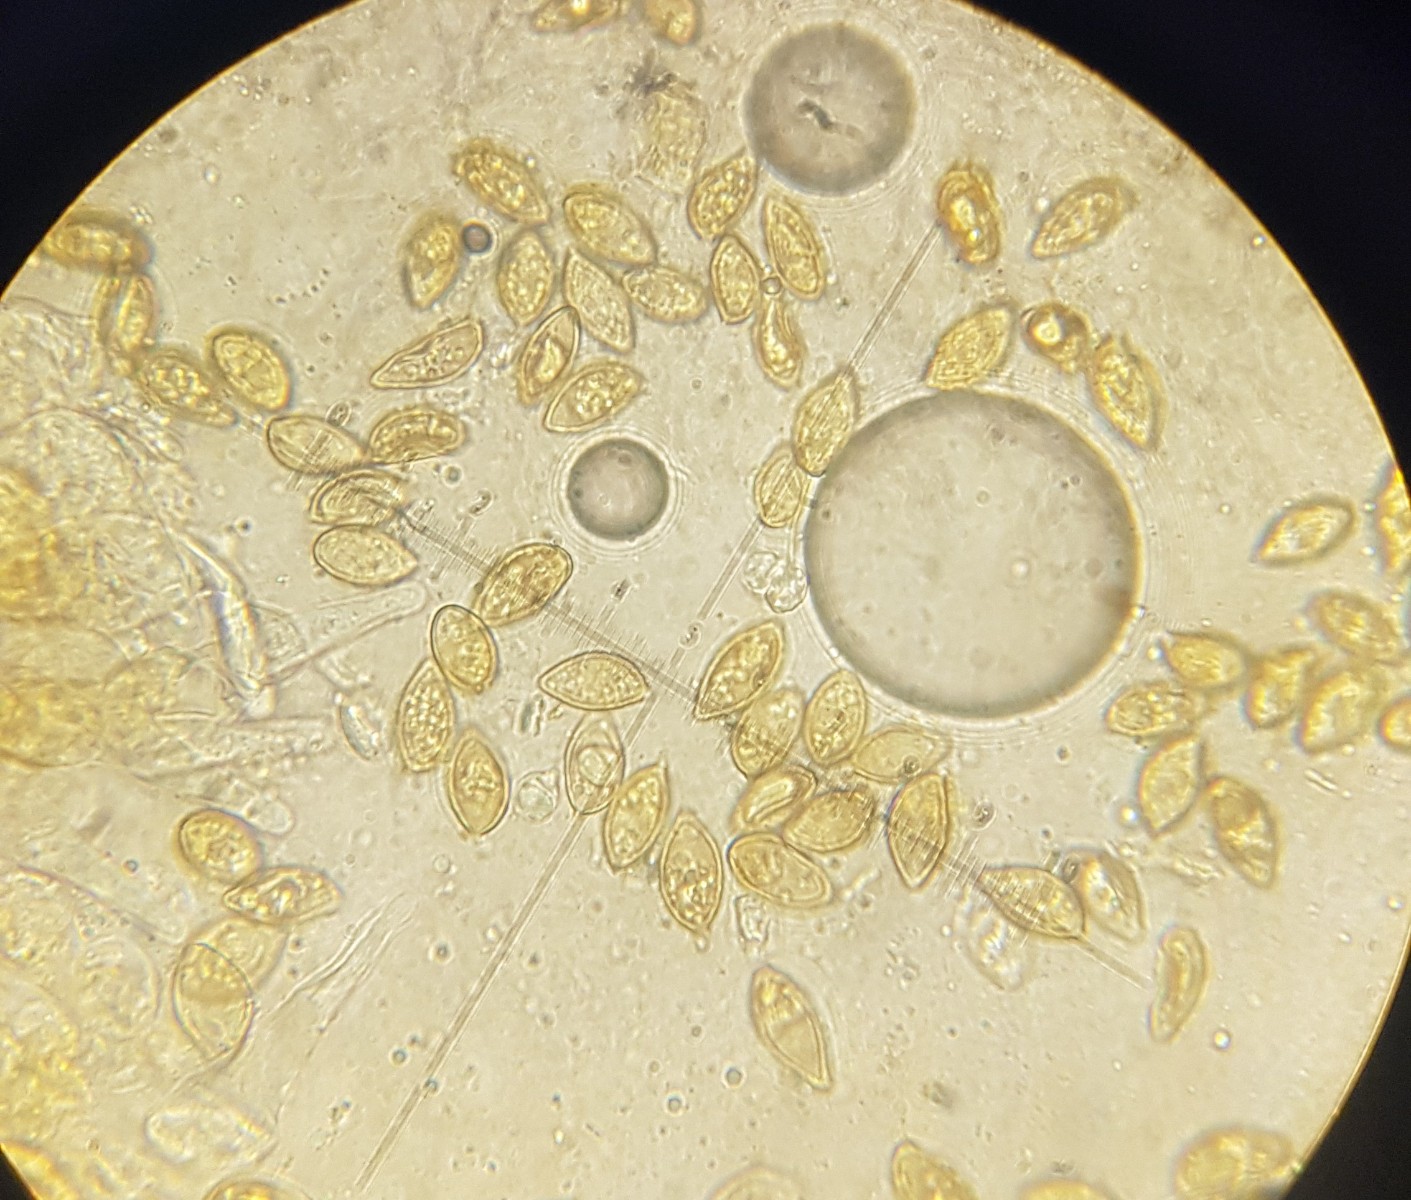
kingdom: Fungi
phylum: Basidiomycota
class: Agaricomycetes
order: Agaricales
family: Hymenogastraceae
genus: Galerina
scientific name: Galerina atkinsoniana
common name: Hairy bell
